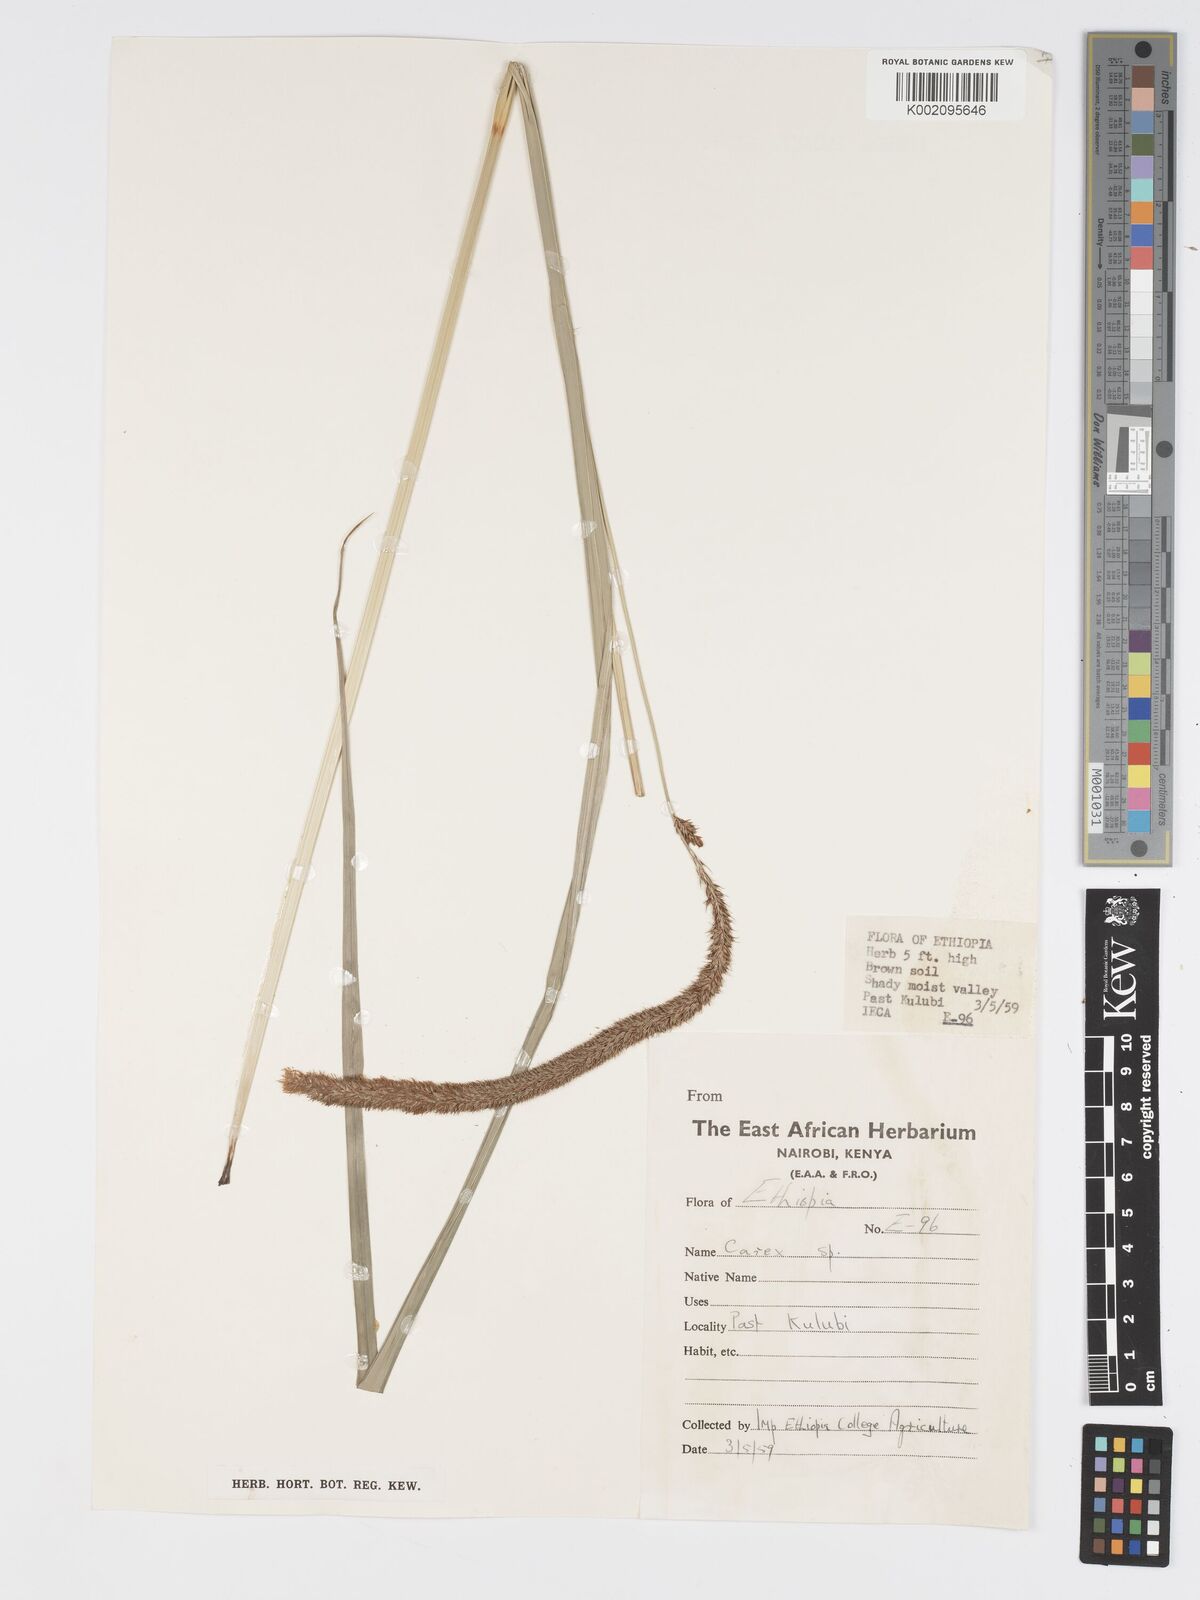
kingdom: Plantae
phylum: Tracheophyta
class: Liliopsida
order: Poales
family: Cyperaceae
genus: Carex
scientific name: Carex bequaertii
